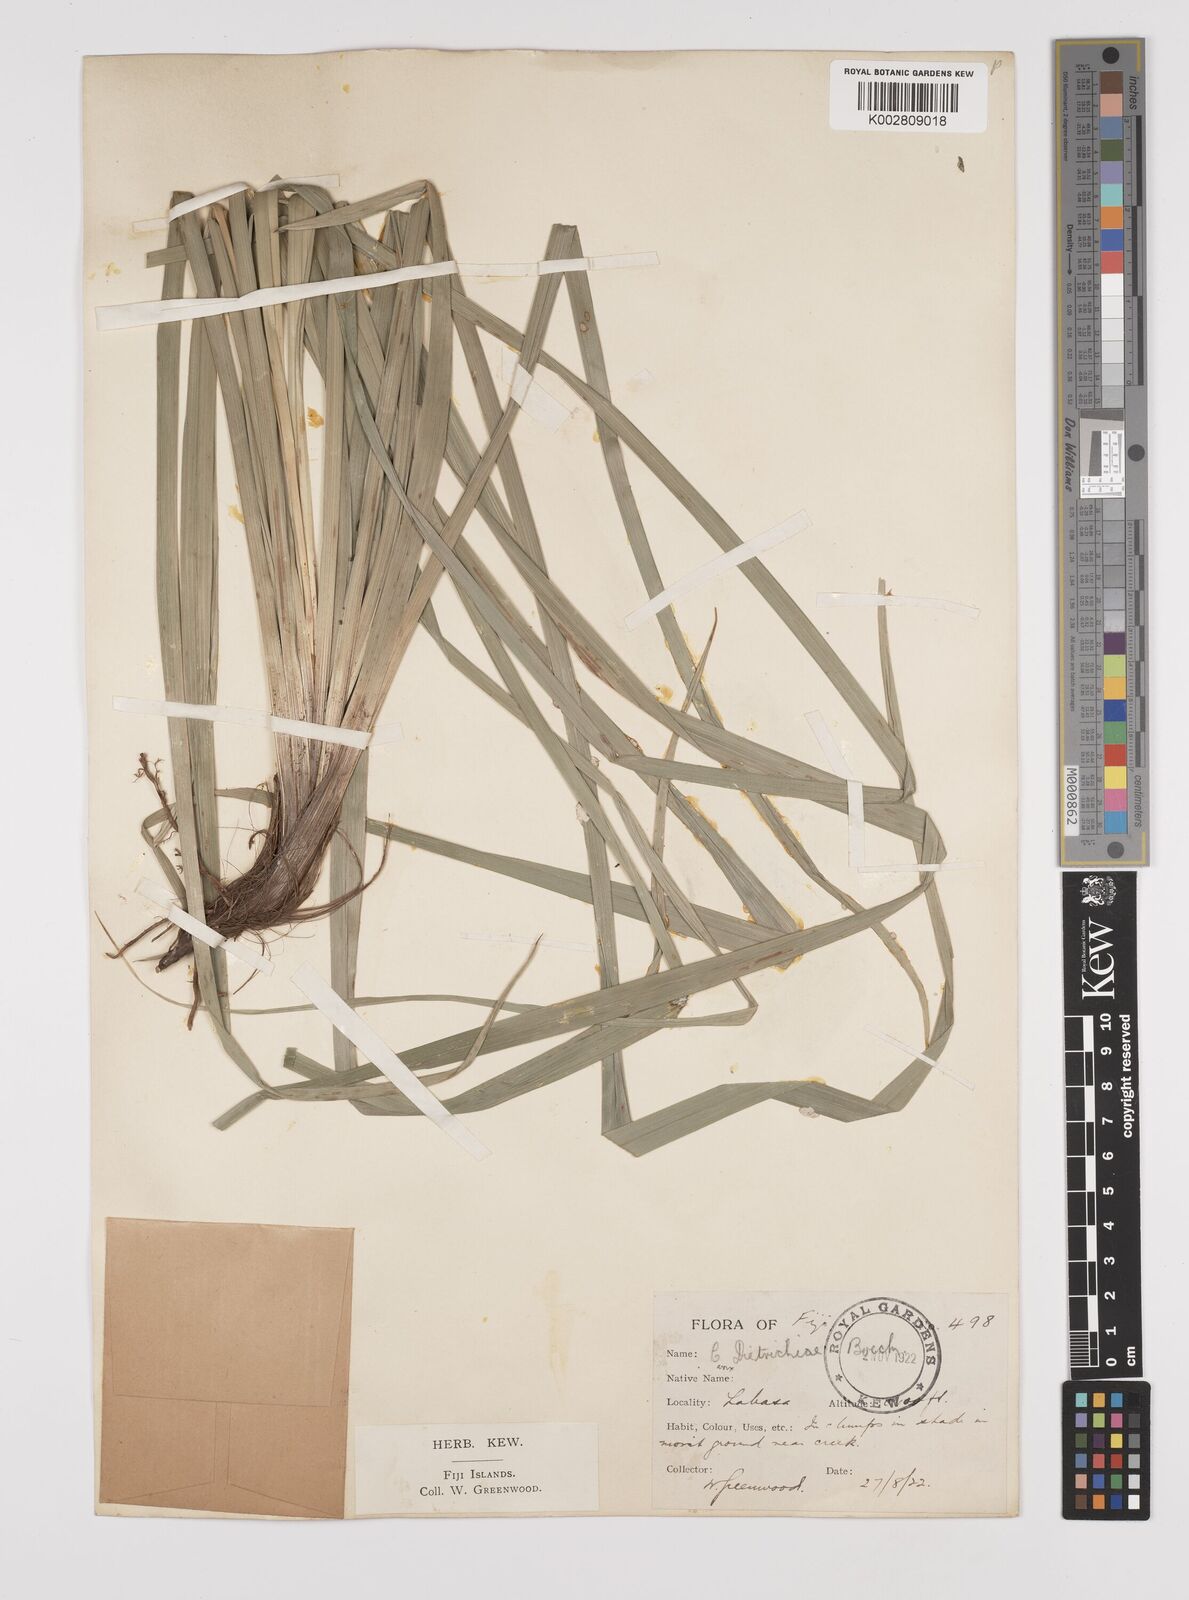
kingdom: Plantae
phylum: Tracheophyta
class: Liliopsida
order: Poales
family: Cyperaceae
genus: Carex
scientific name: Carex indica
